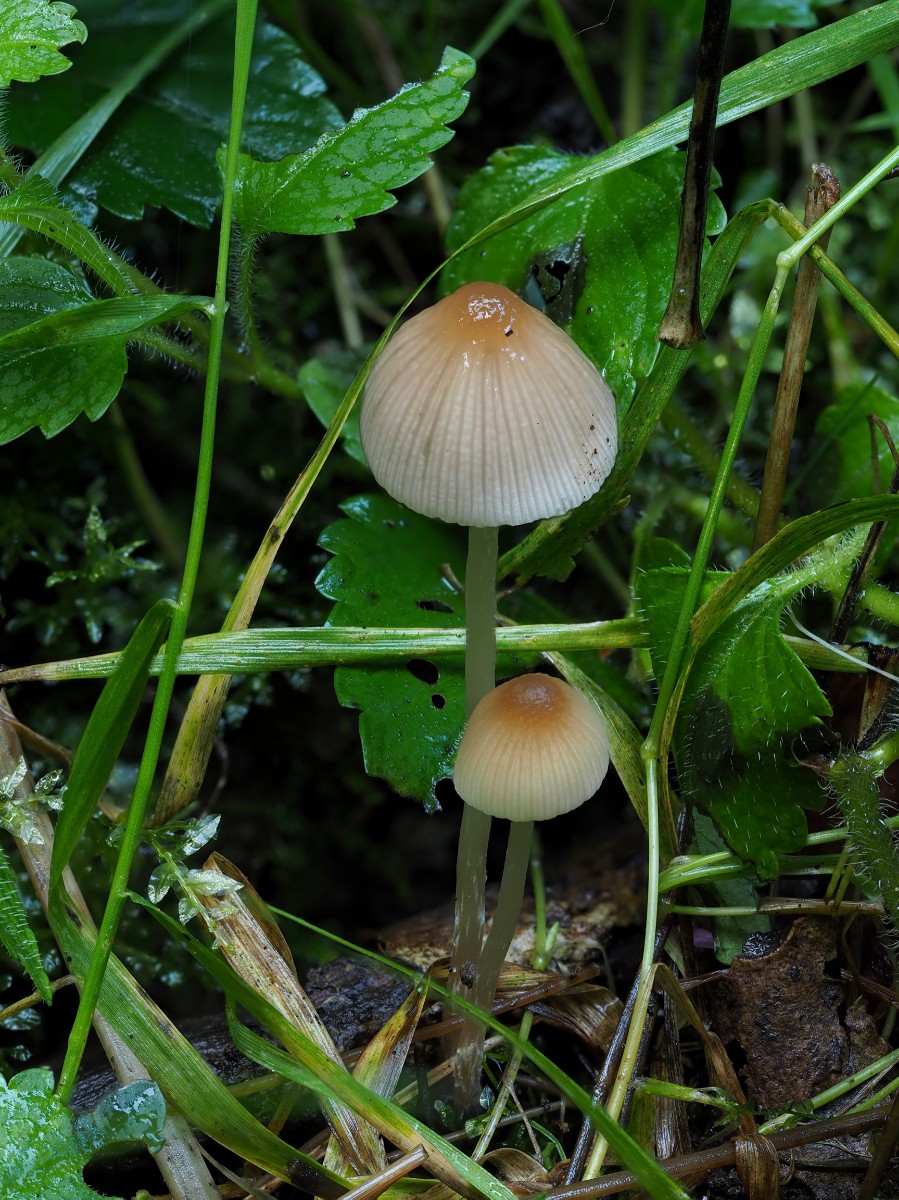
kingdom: Fungi
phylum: Basidiomycota
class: Agaricomycetes
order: Agaricales
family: Psathyrellaceae
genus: Psathyrella
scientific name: Psathyrella
